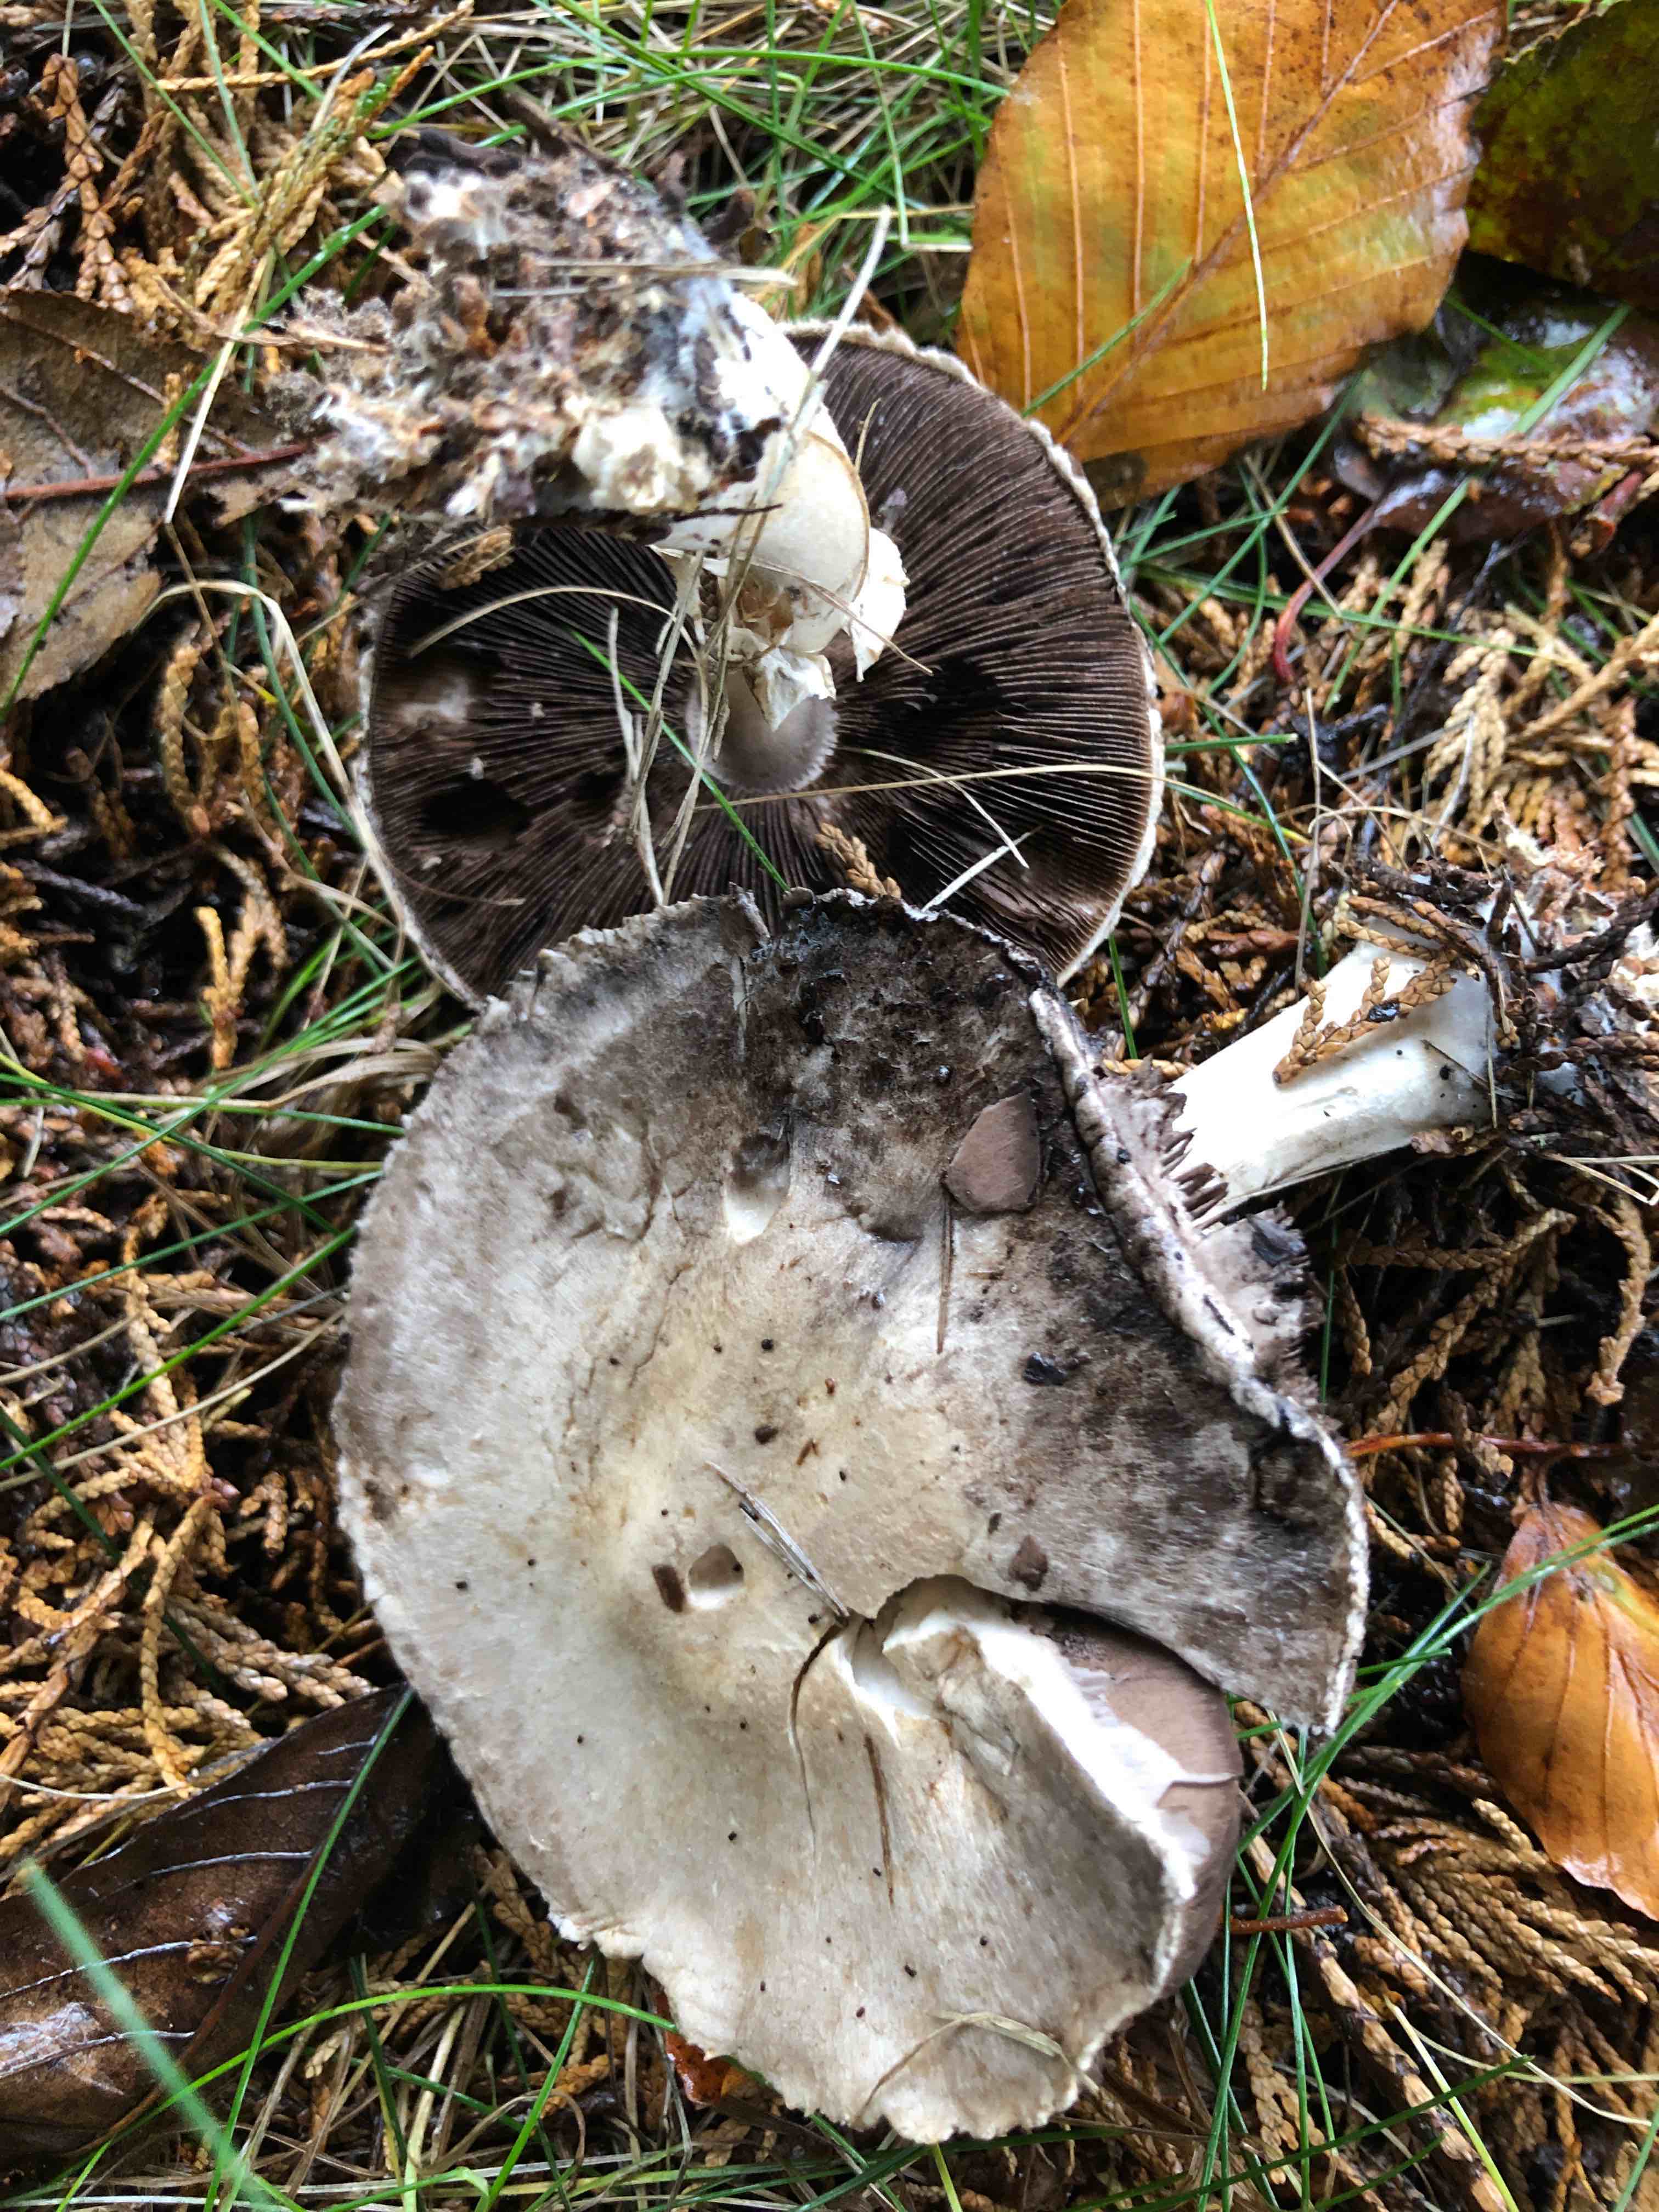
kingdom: Fungi
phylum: Basidiomycota
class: Agaricomycetes
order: Agaricales
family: Agaricaceae
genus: Agaricus
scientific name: Agaricus
